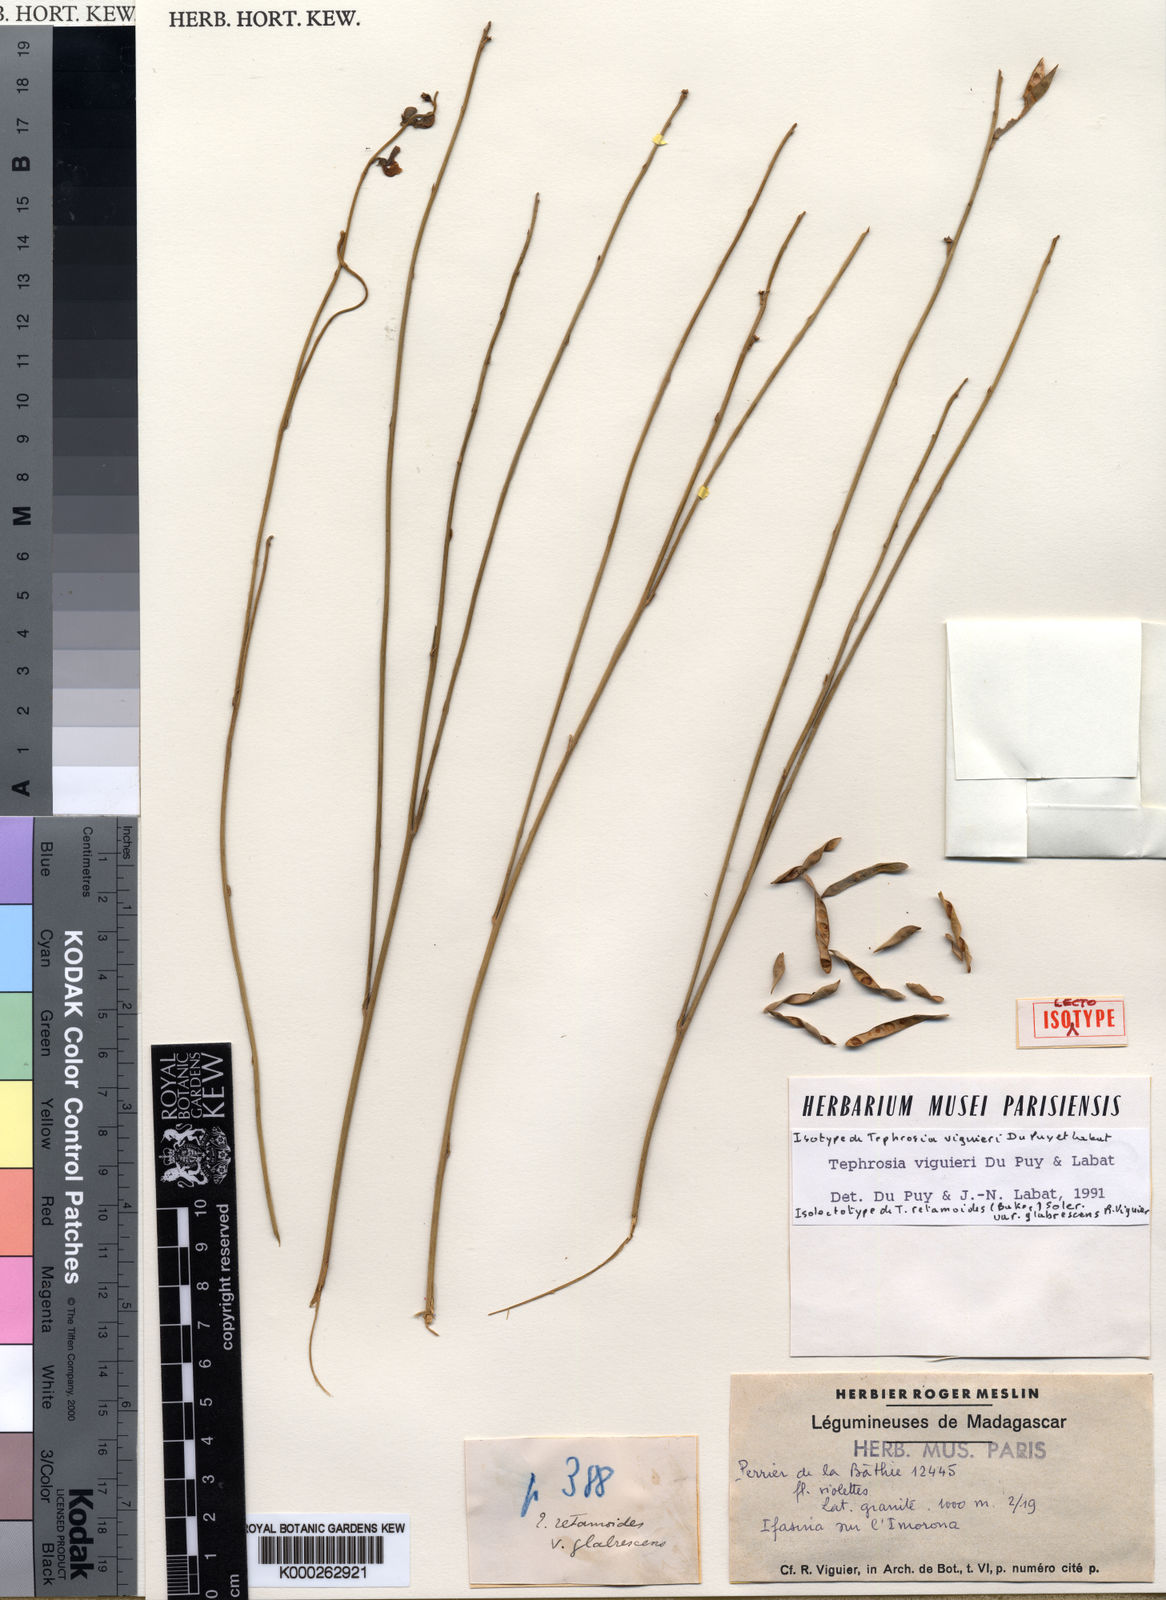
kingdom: Plantae
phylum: Tracheophyta
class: Magnoliopsida
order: Fabales
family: Fabaceae
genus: Tephrosia
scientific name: Tephrosia viguieri
